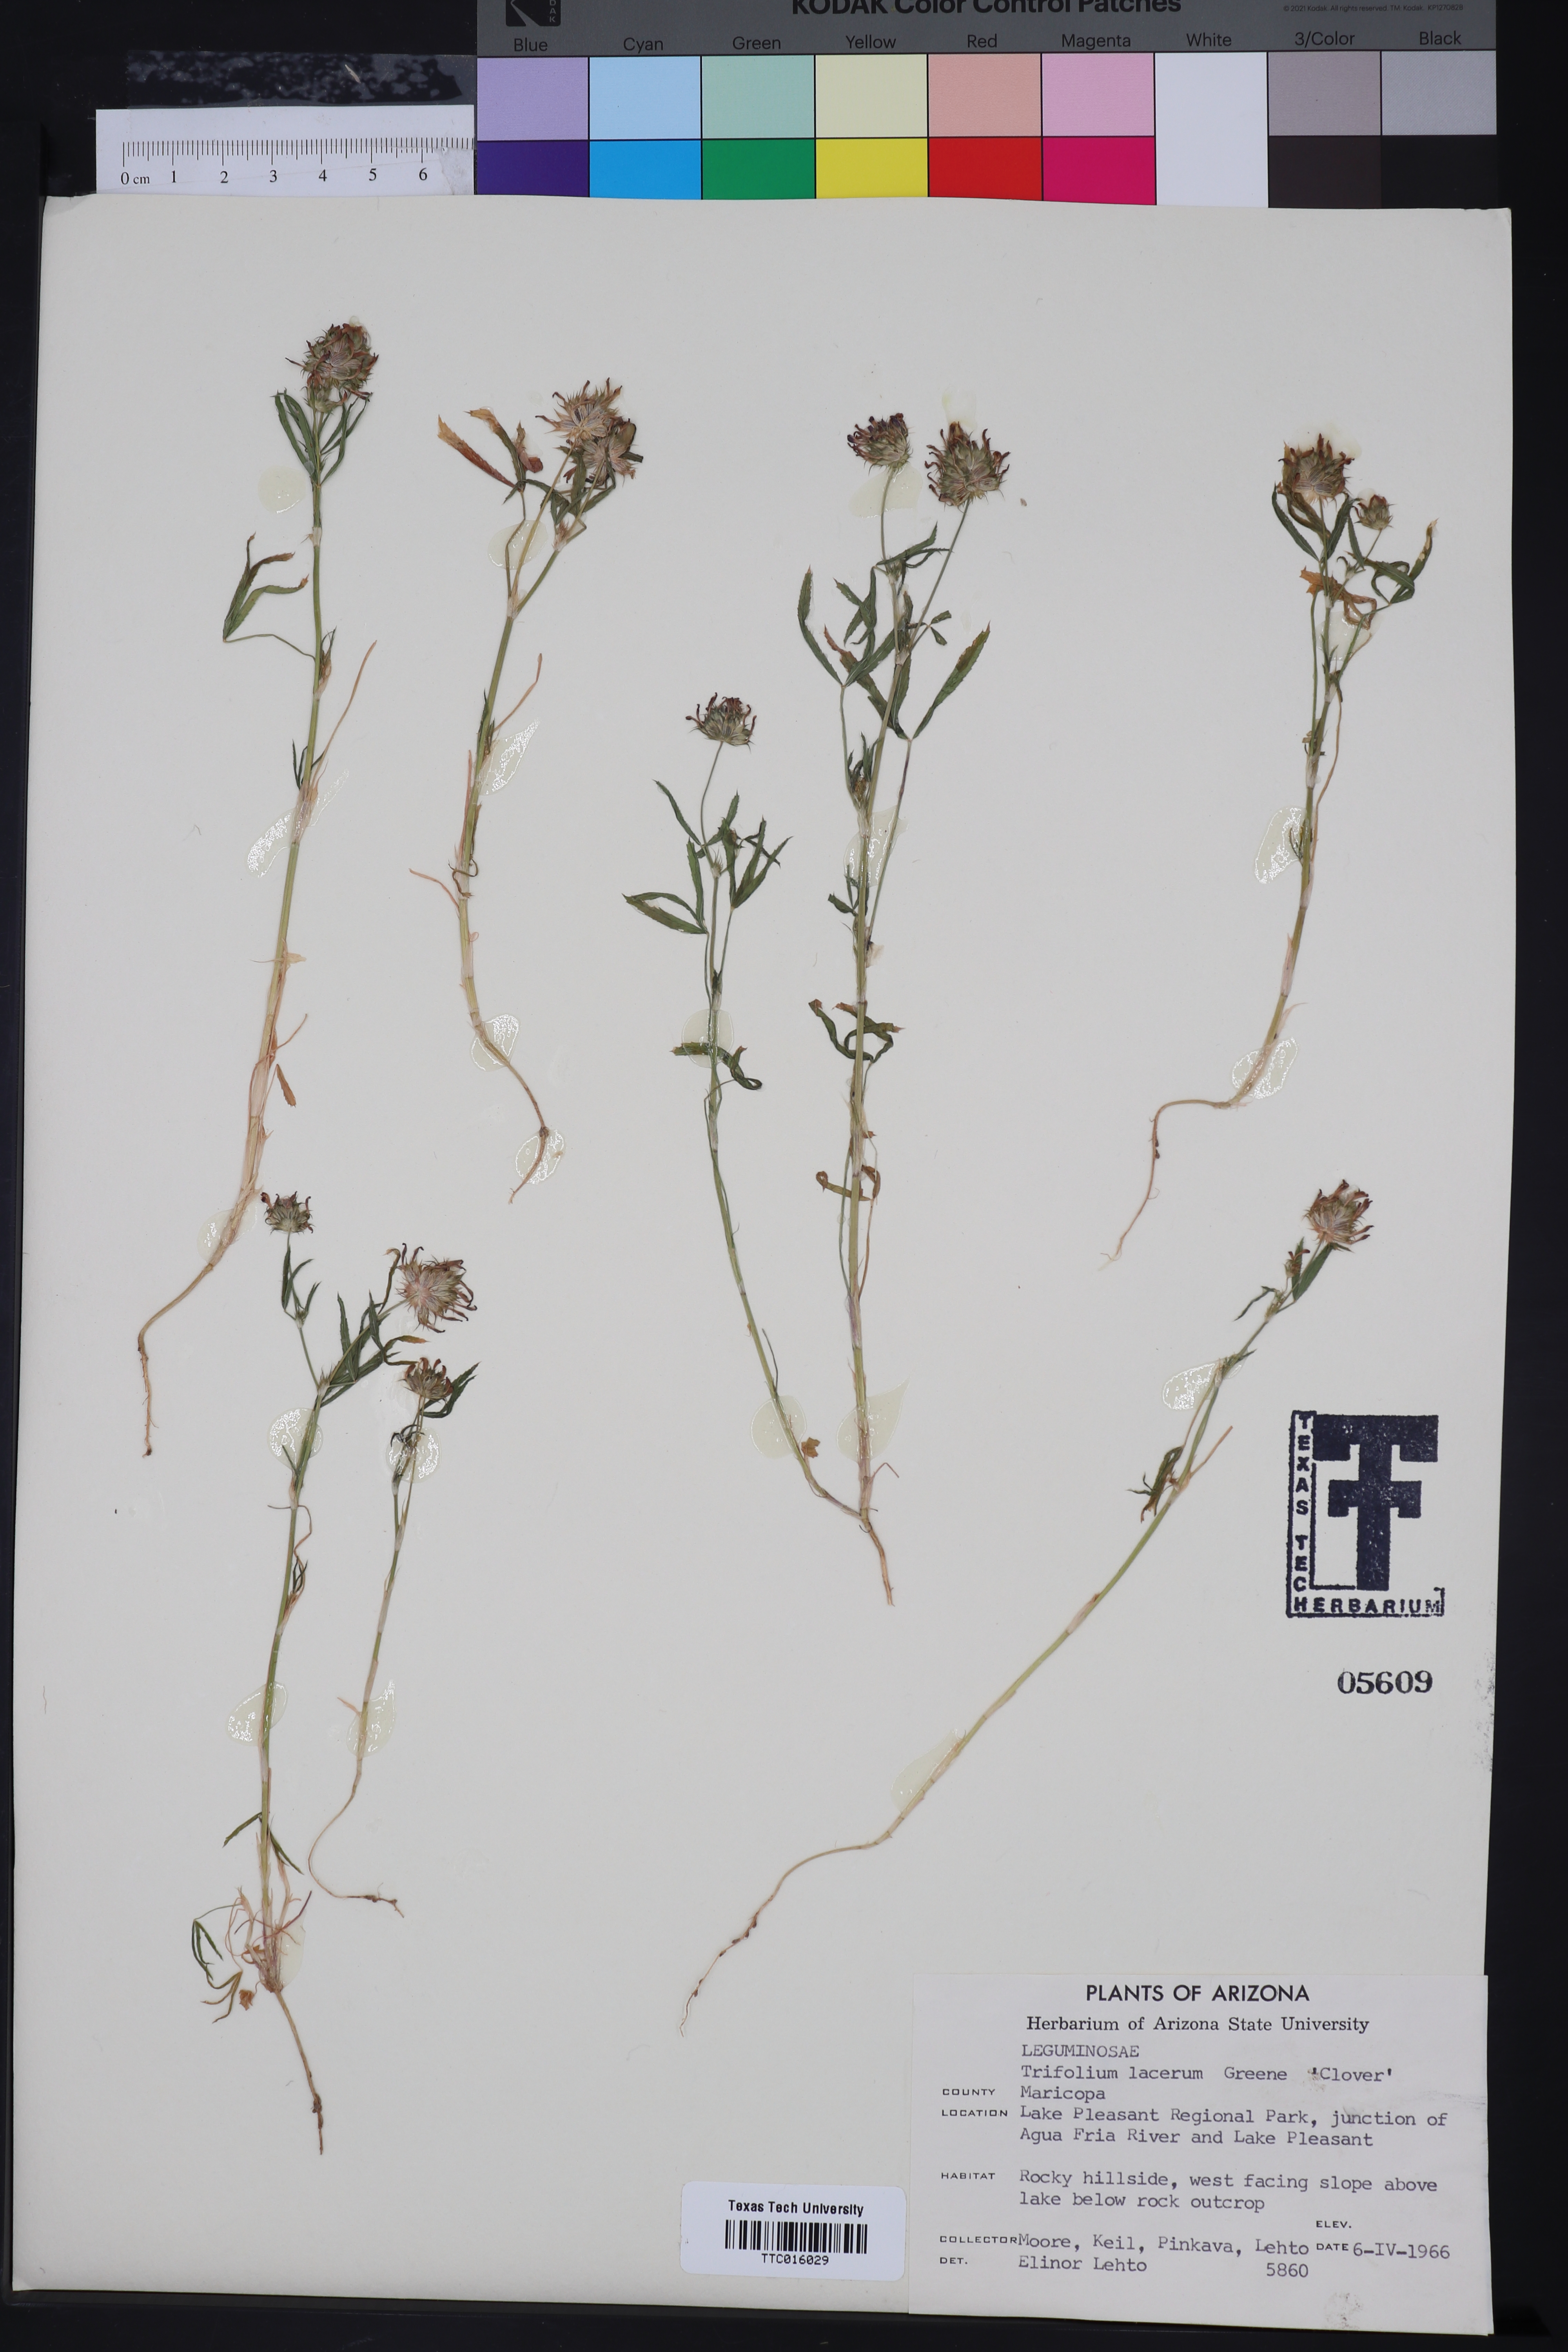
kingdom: Plantae
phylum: Tracheophyta
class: Magnoliopsida
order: Fabales
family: Fabaceae
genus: Trifolium
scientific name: Trifolium wormskioldii
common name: Springbank clover
